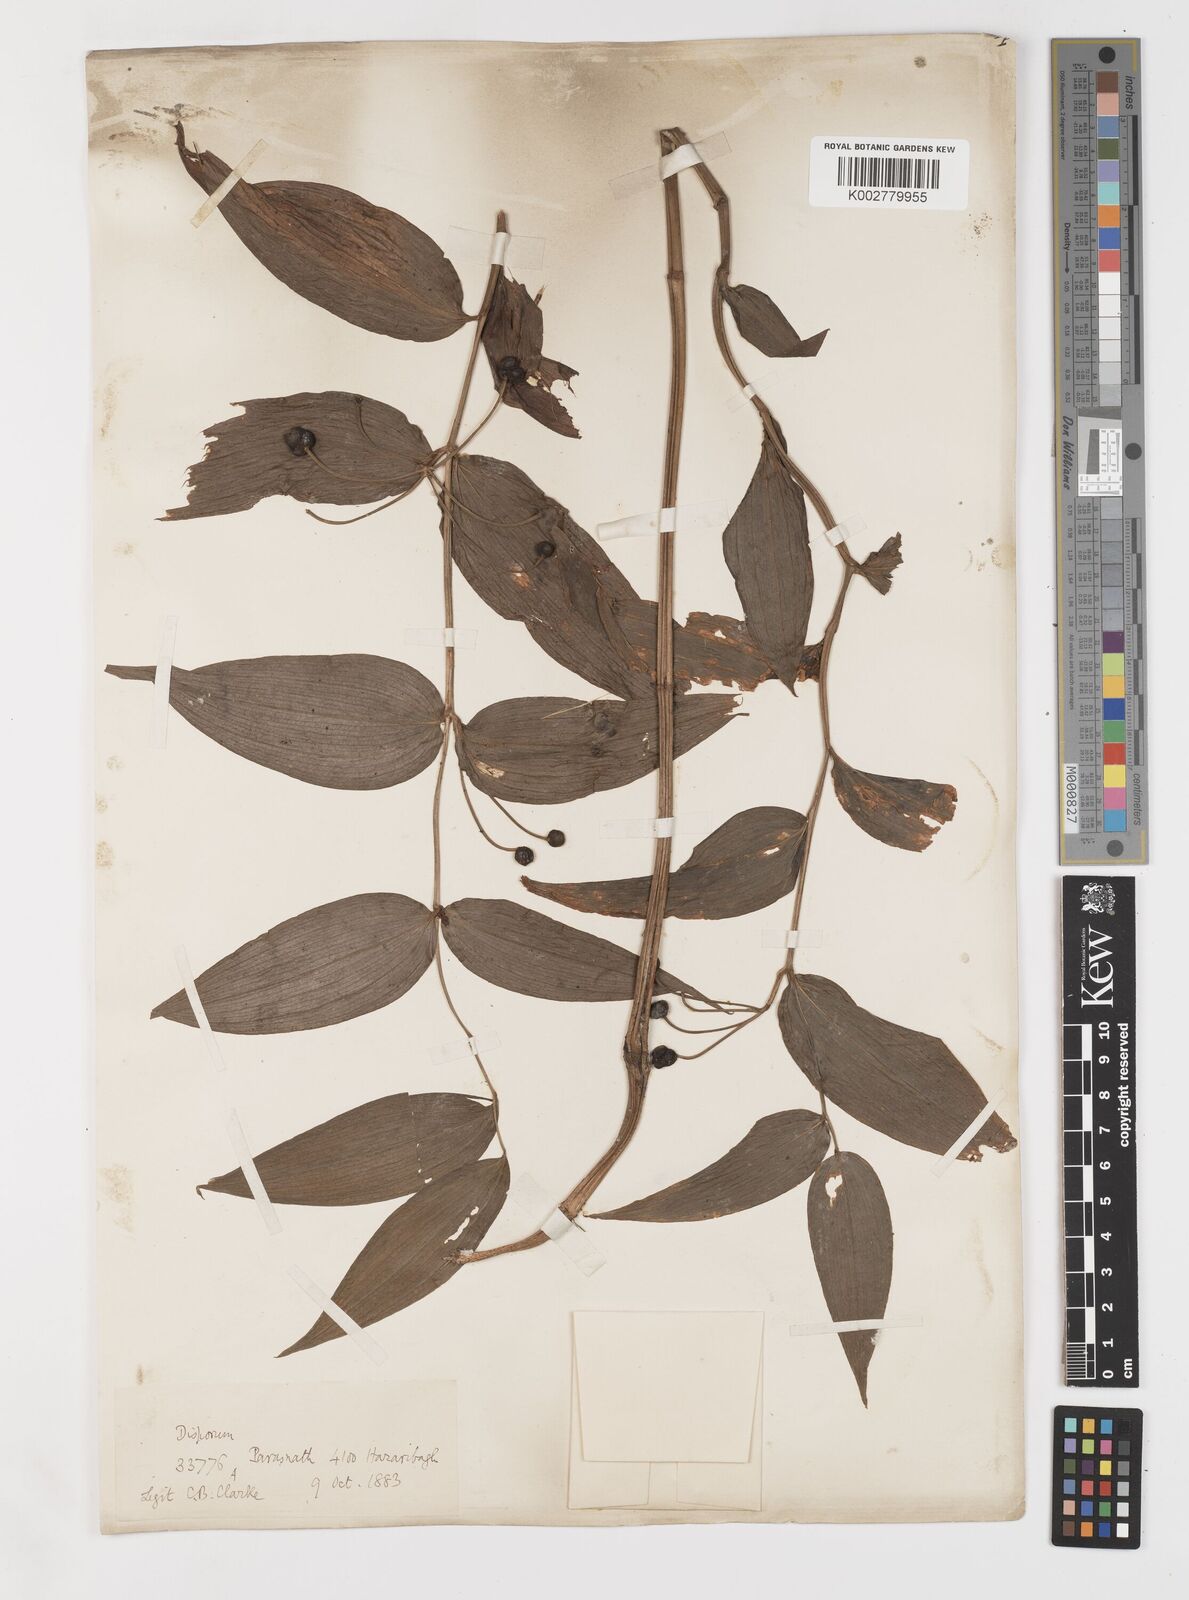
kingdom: Plantae
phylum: Tracheophyta
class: Liliopsida
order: Liliales
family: Colchicaceae
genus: Disporum
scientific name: Disporum cantoniense
